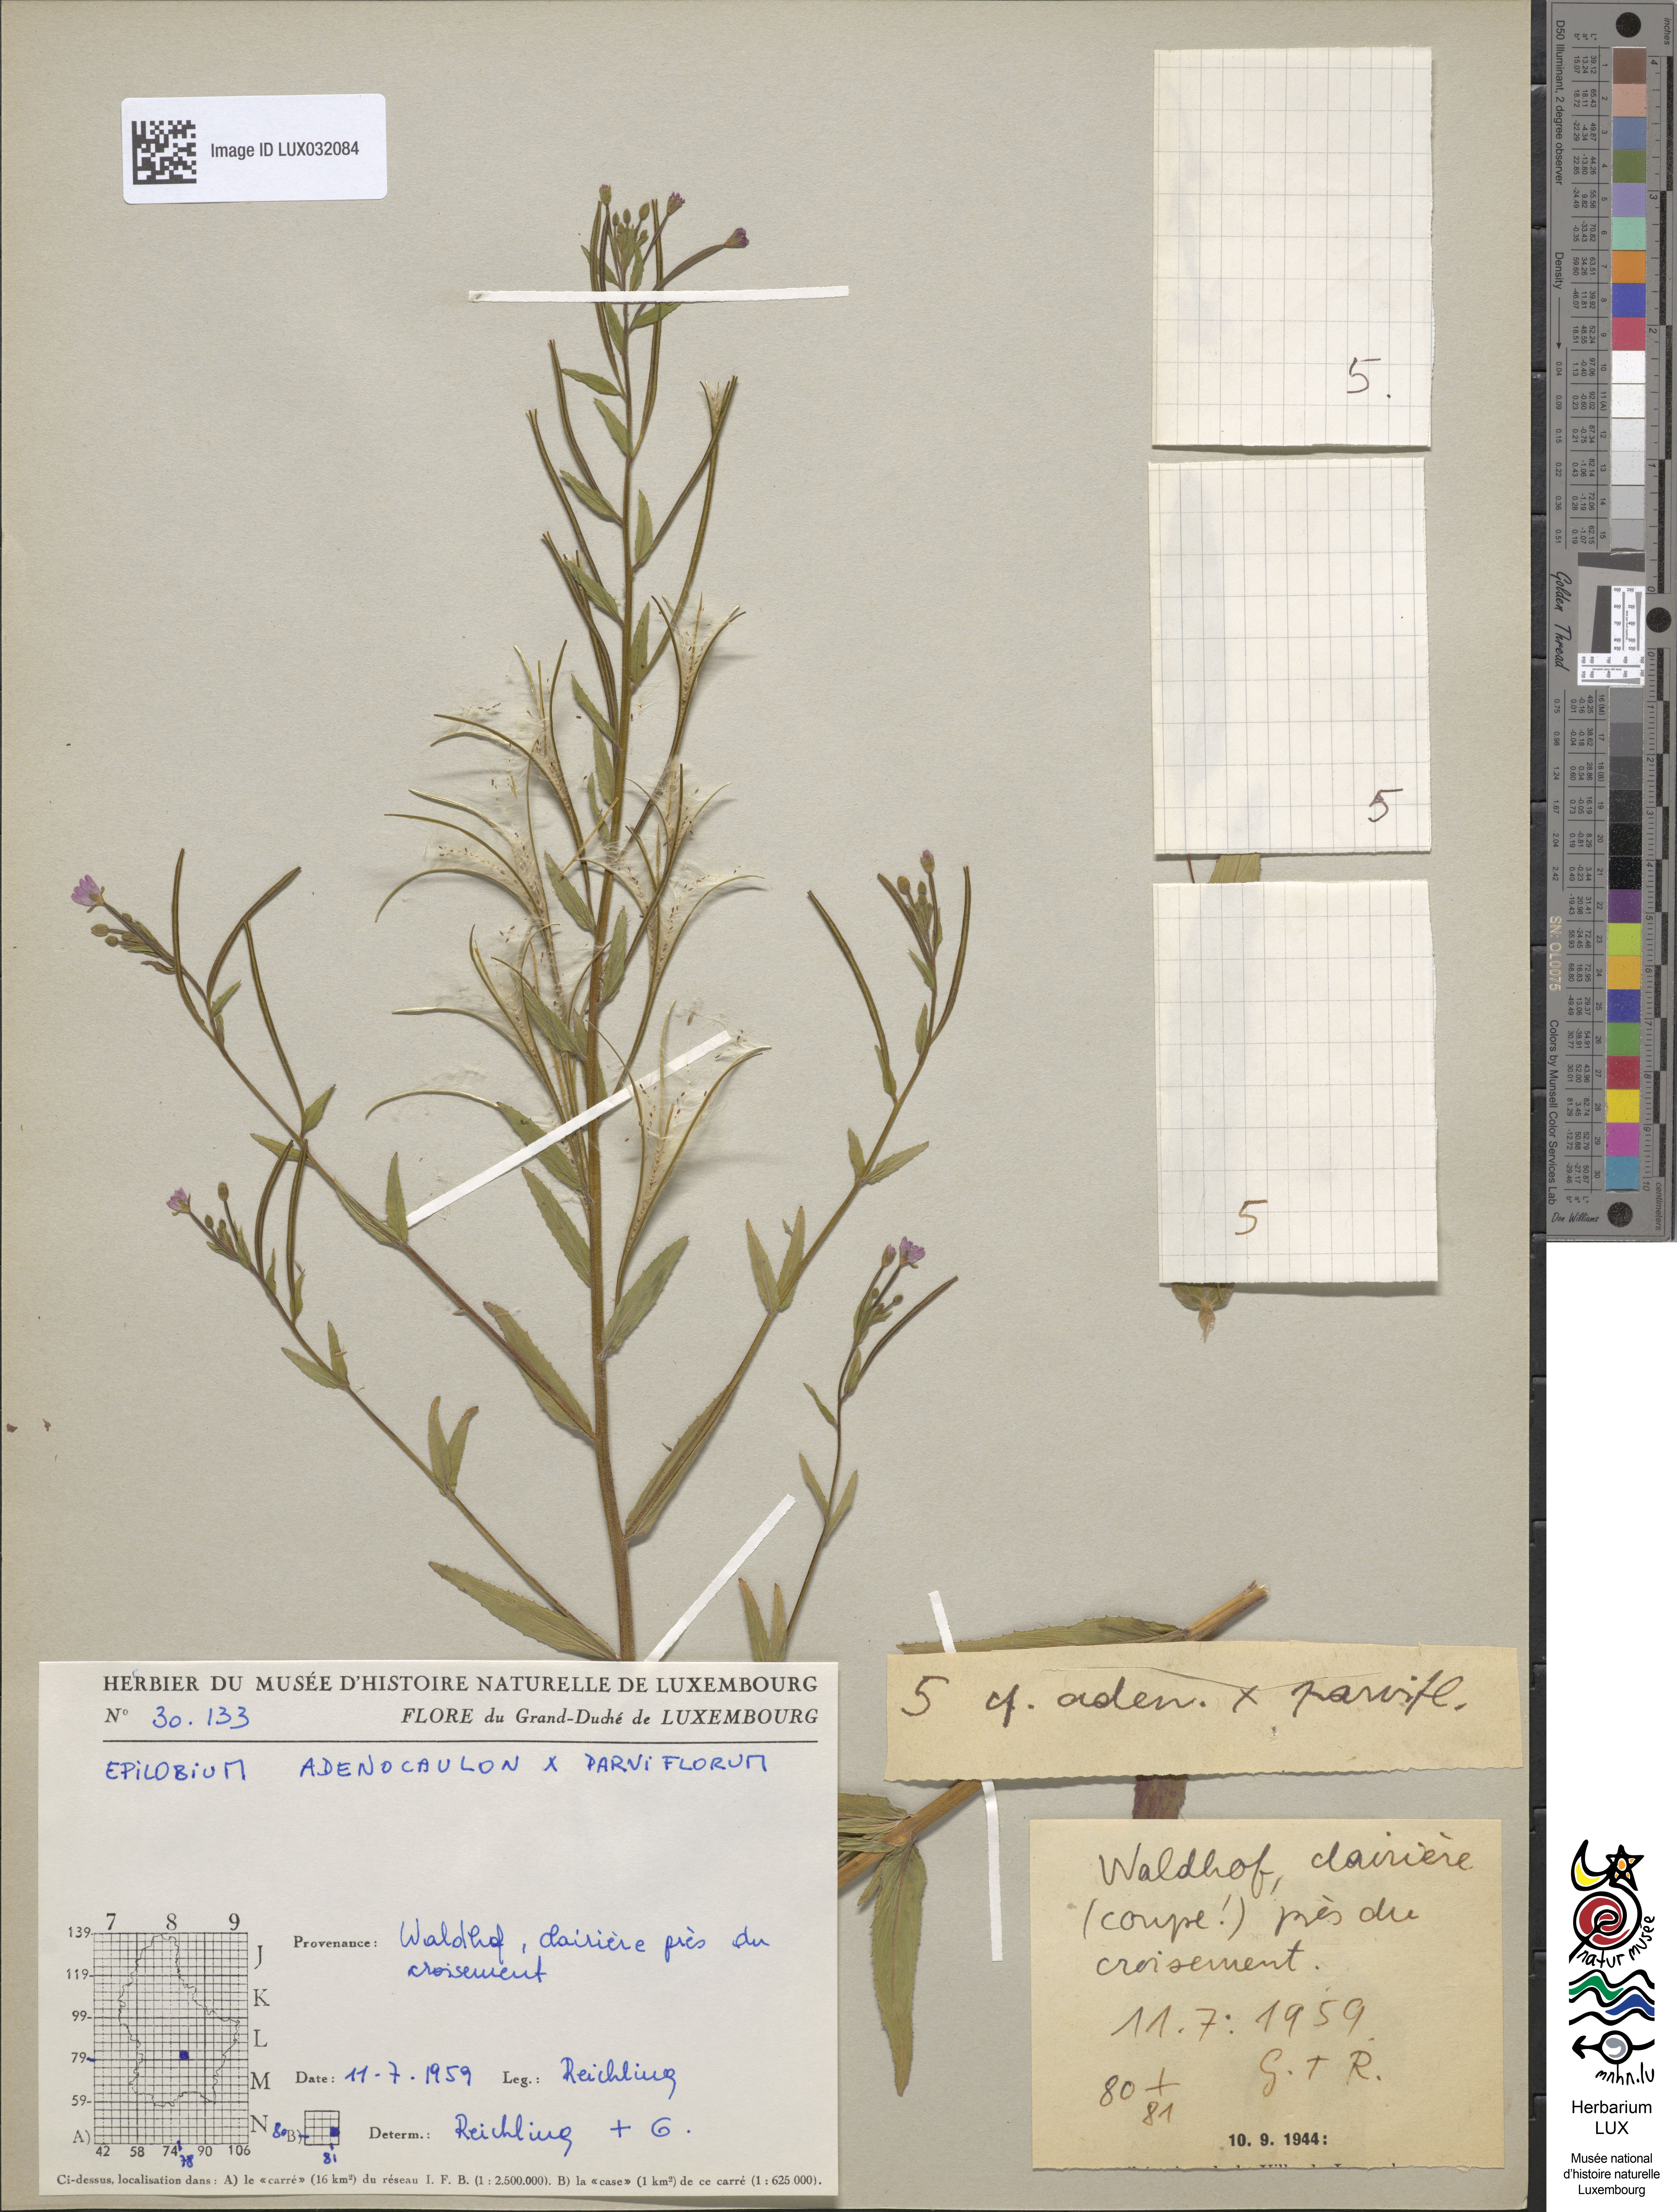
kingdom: Plantae
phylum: Tracheophyta
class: Magnoliopsida
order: Myrtales
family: Onagraceae
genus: Epilobium
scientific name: Epilobium
